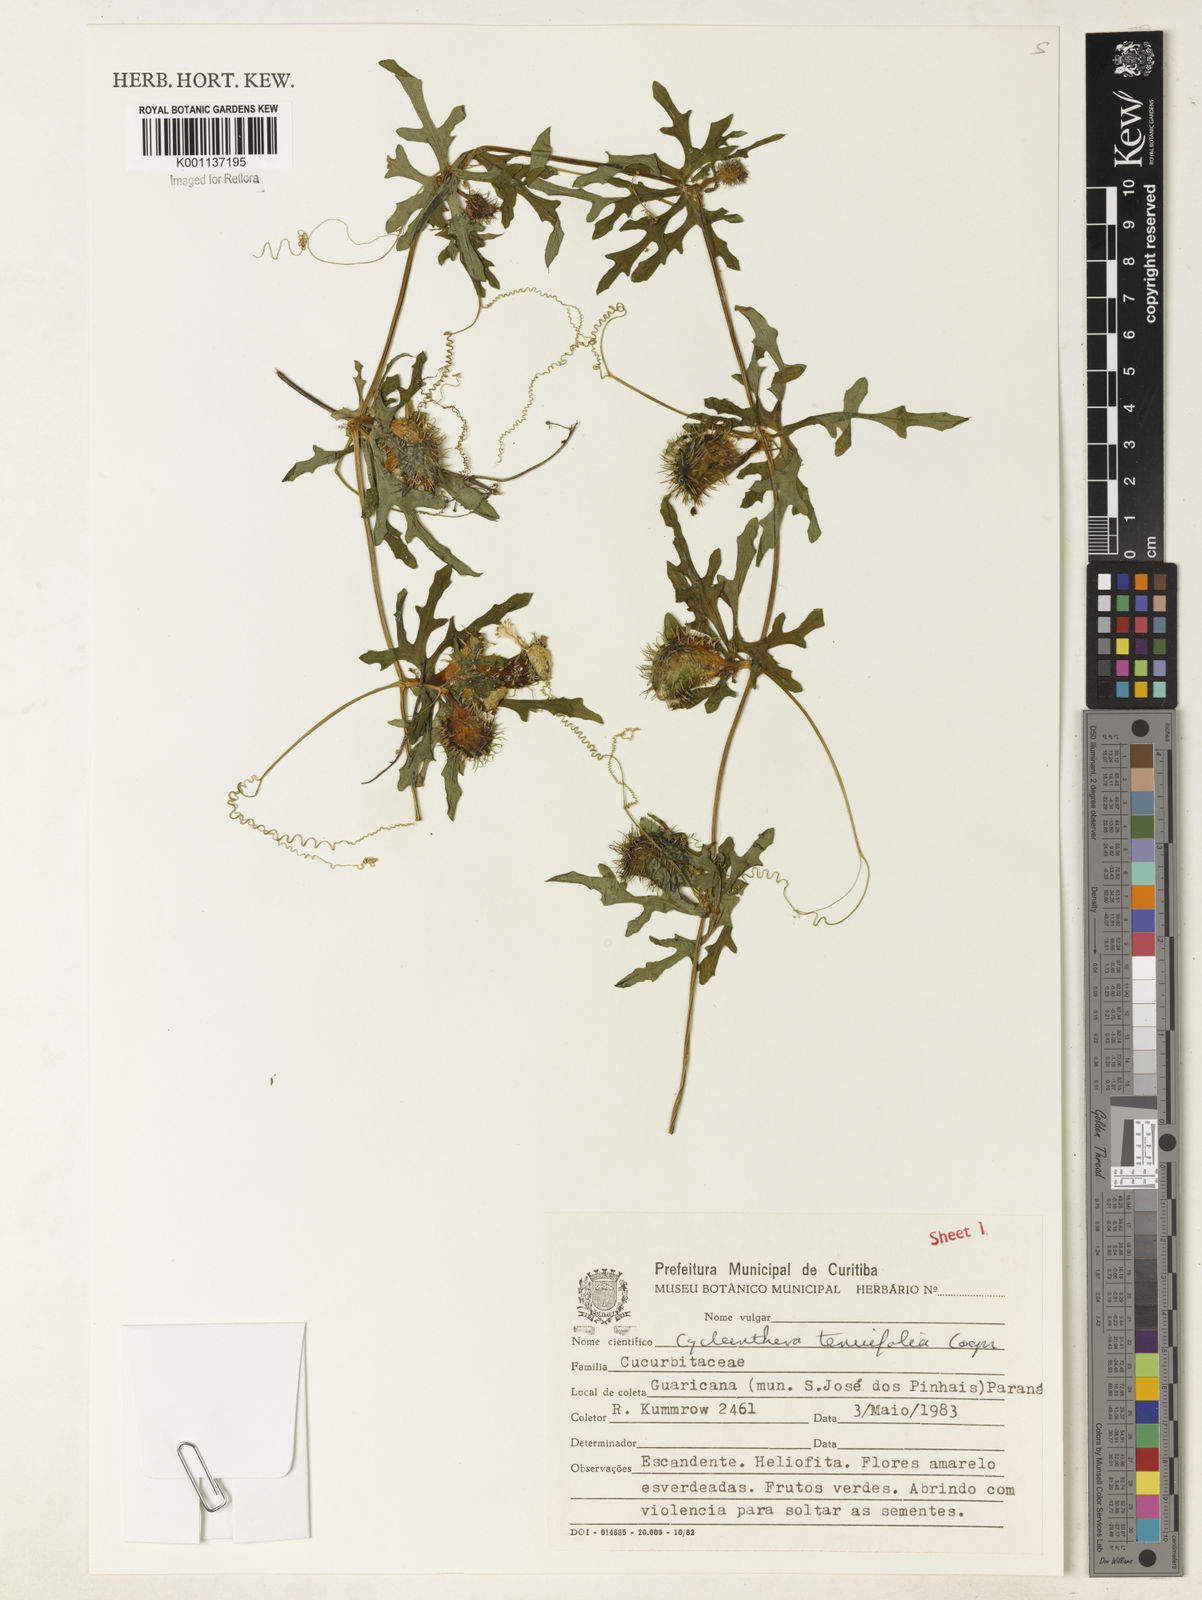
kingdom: Plantae
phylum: Tracheophyta
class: Magnoliopsida
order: Cucurbitales
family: Cucurbitaceae
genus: Cyclanthera
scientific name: Cyclanthera tenuifolia
